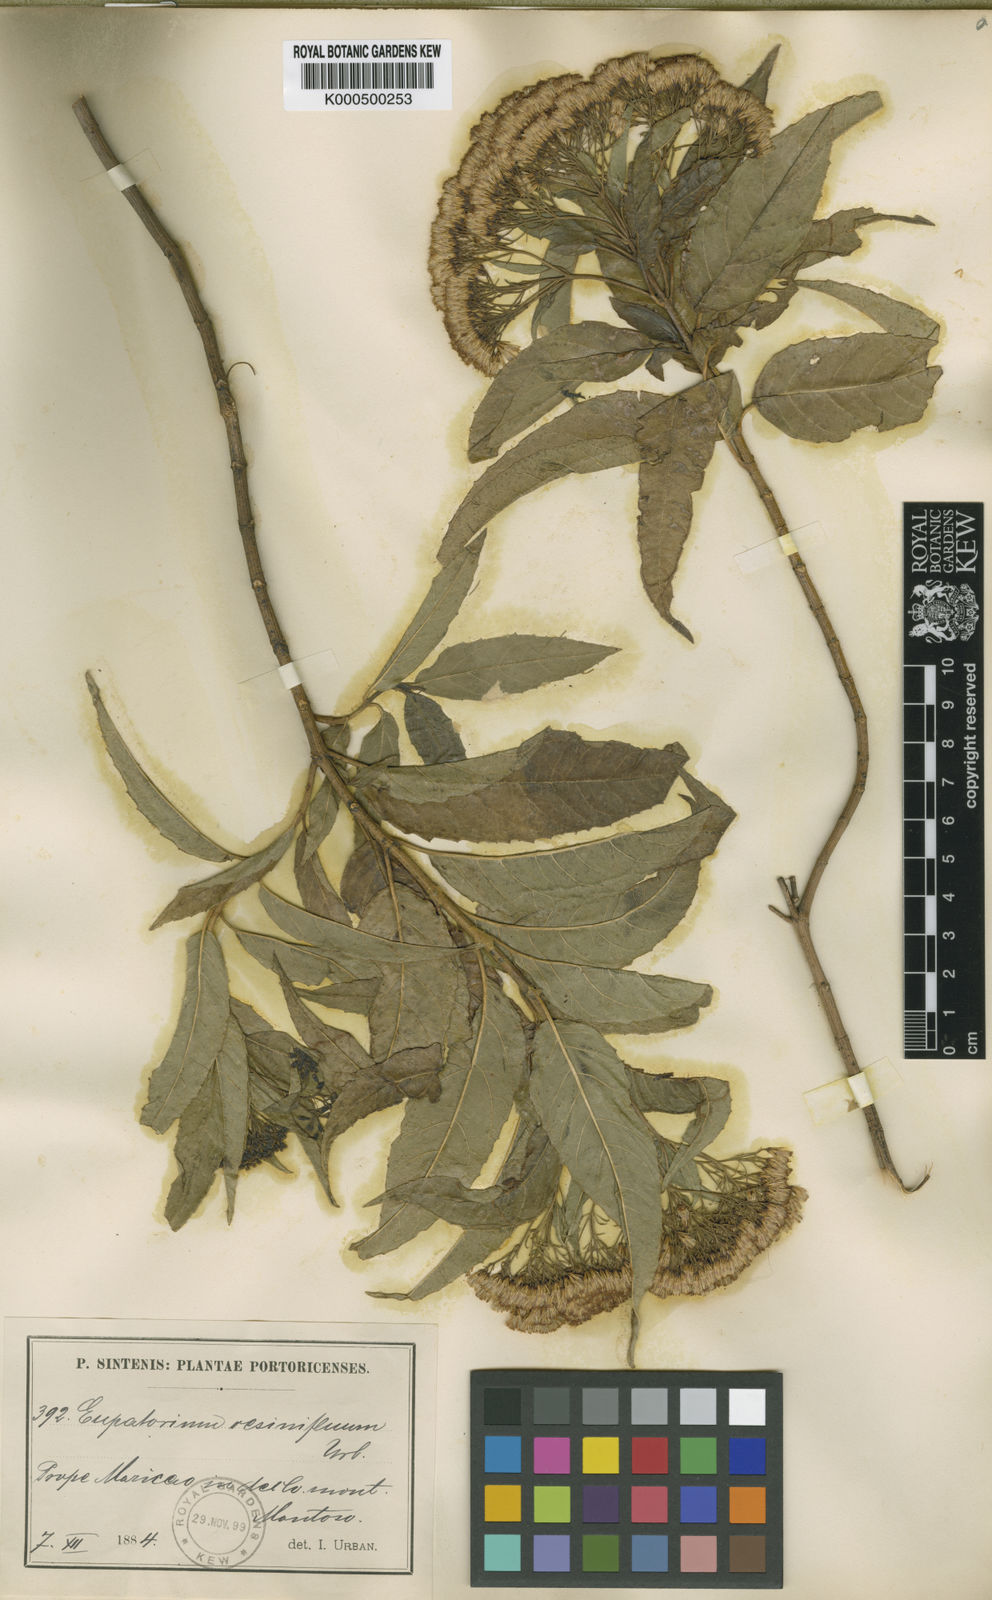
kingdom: Plantae
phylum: Tracheophyta
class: Magnoliopsida
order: Asterales
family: Asteraceae
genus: Ageratina
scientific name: Ageratina resiniflua
